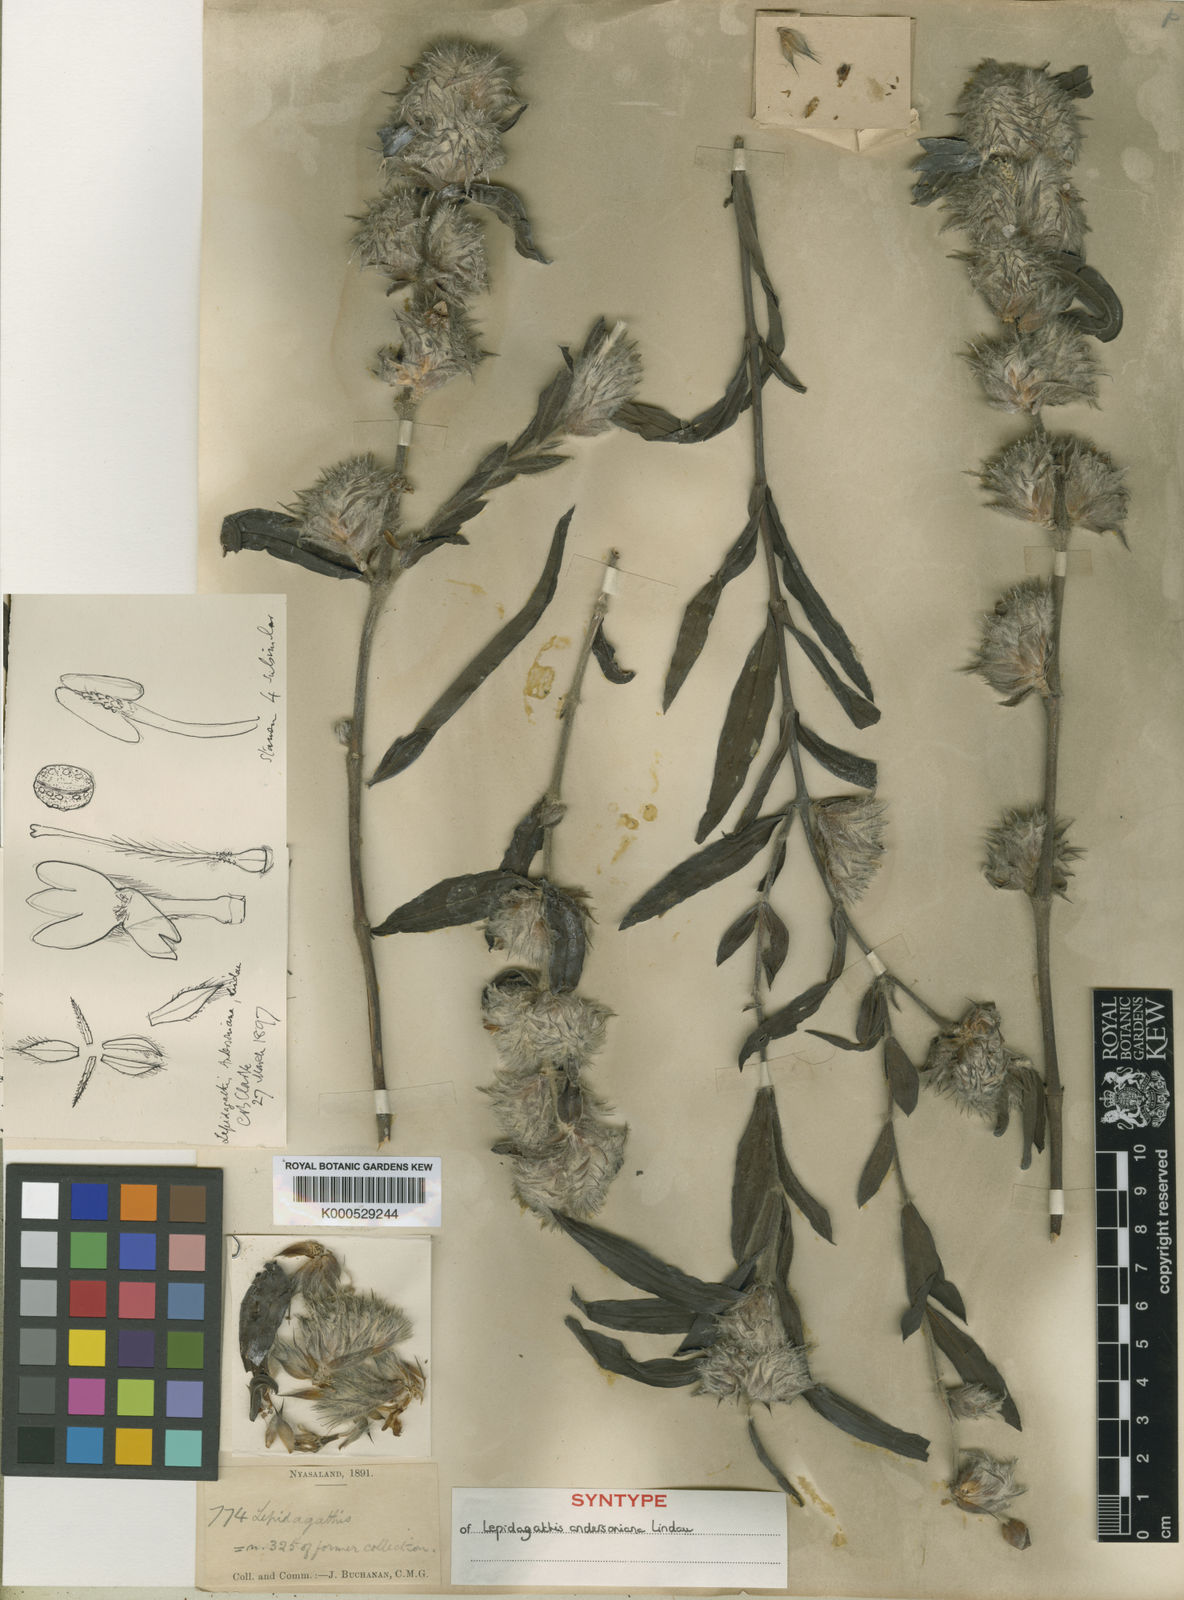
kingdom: Plantae
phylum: Tracheophyta
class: Magnoliopsida
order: Lamiales
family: Acanthaceae
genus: Lepidagathis
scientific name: Lepidagathis andersoniana
